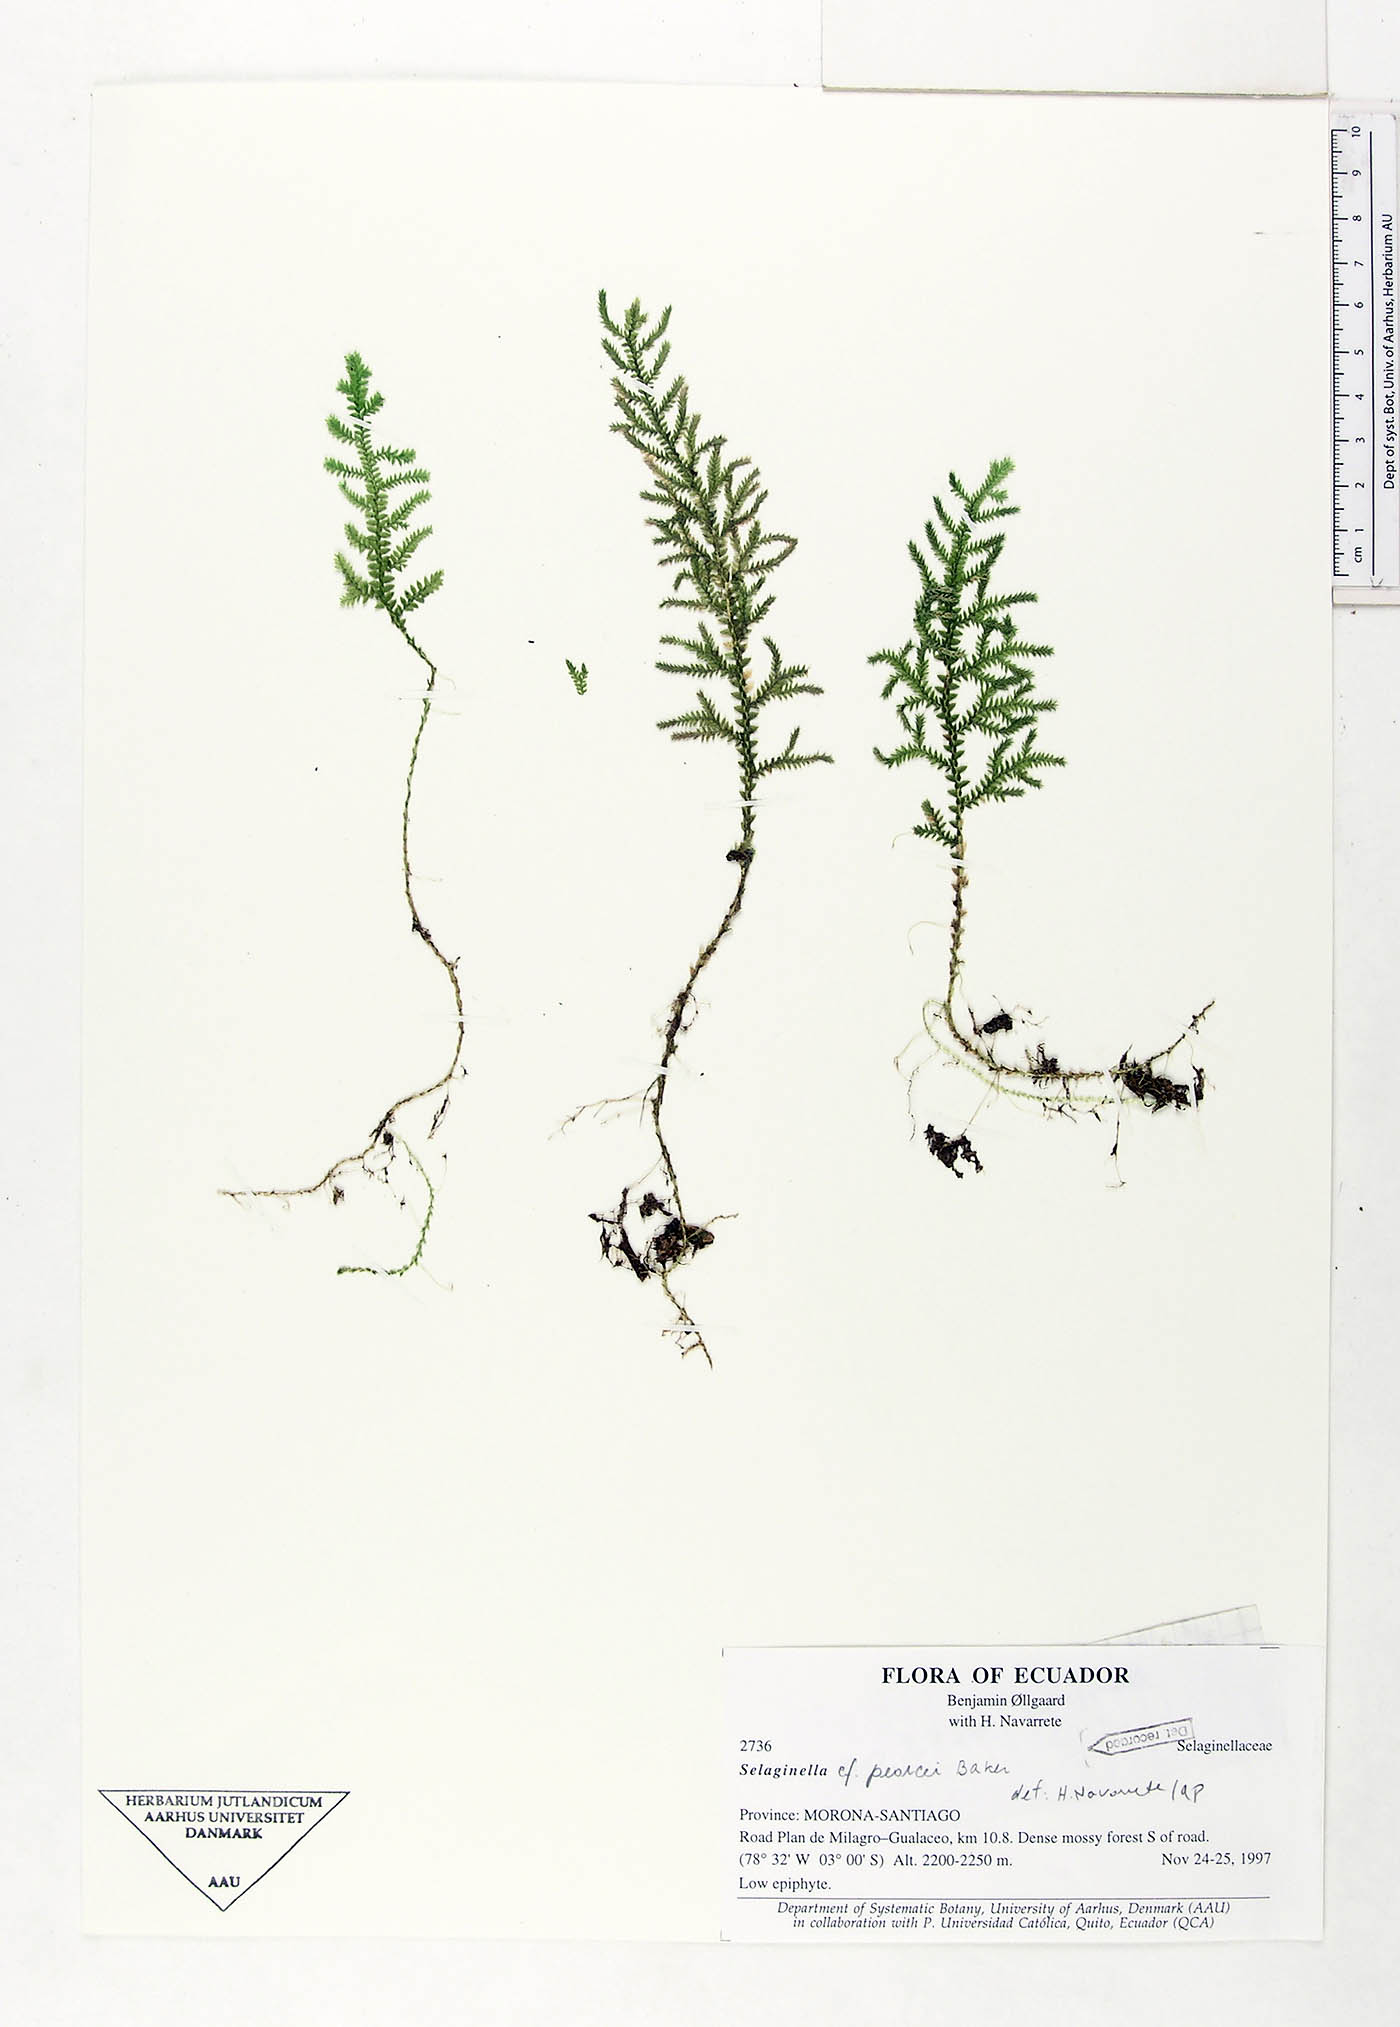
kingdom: Plantae
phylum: Tracheophyta
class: Lycopodiopsida
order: Selaginellales
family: Selaginellaceae
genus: Selaginella
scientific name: Selaginella moritziana
